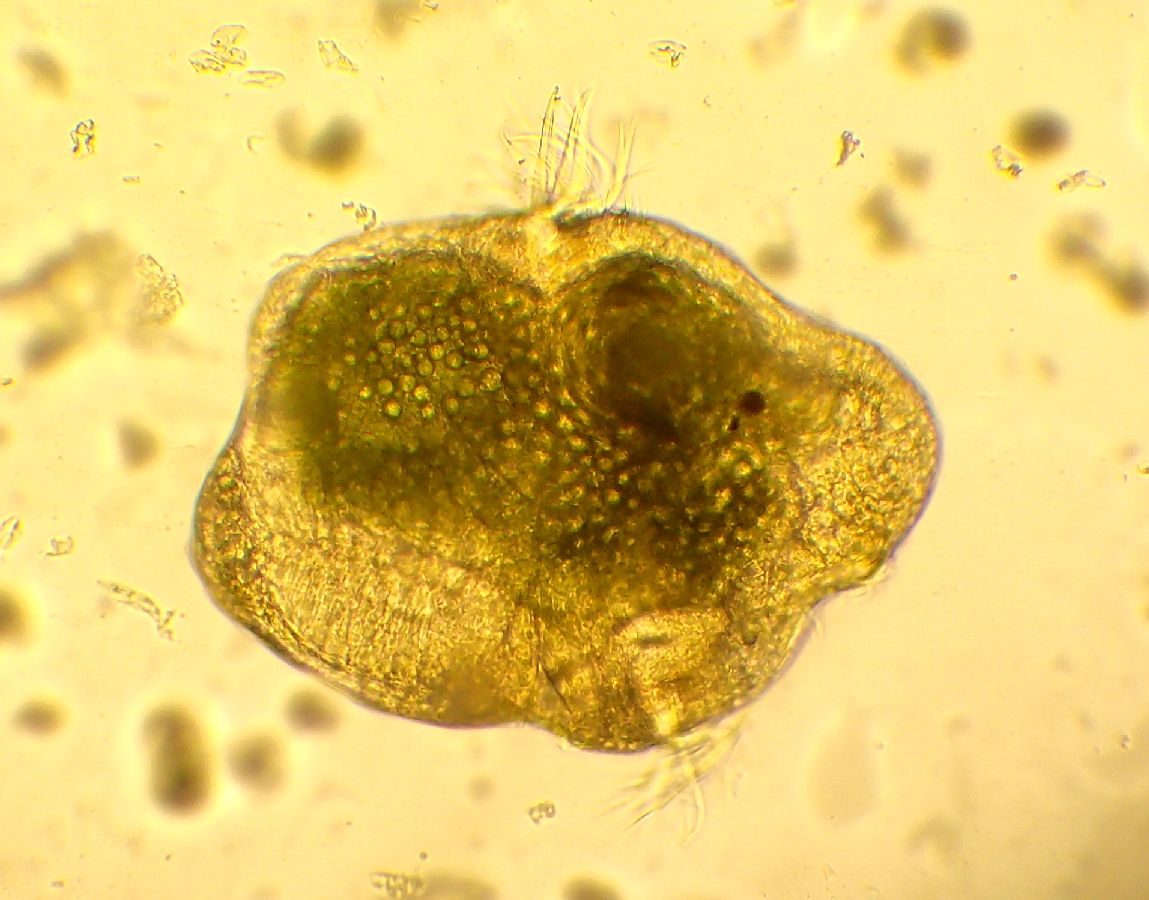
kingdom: Animalia
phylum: Annelida
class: Polychaeta
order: Phyllodocida
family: Phyllodocidae
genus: Phyllodoce
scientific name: Phyllodoce maculata
